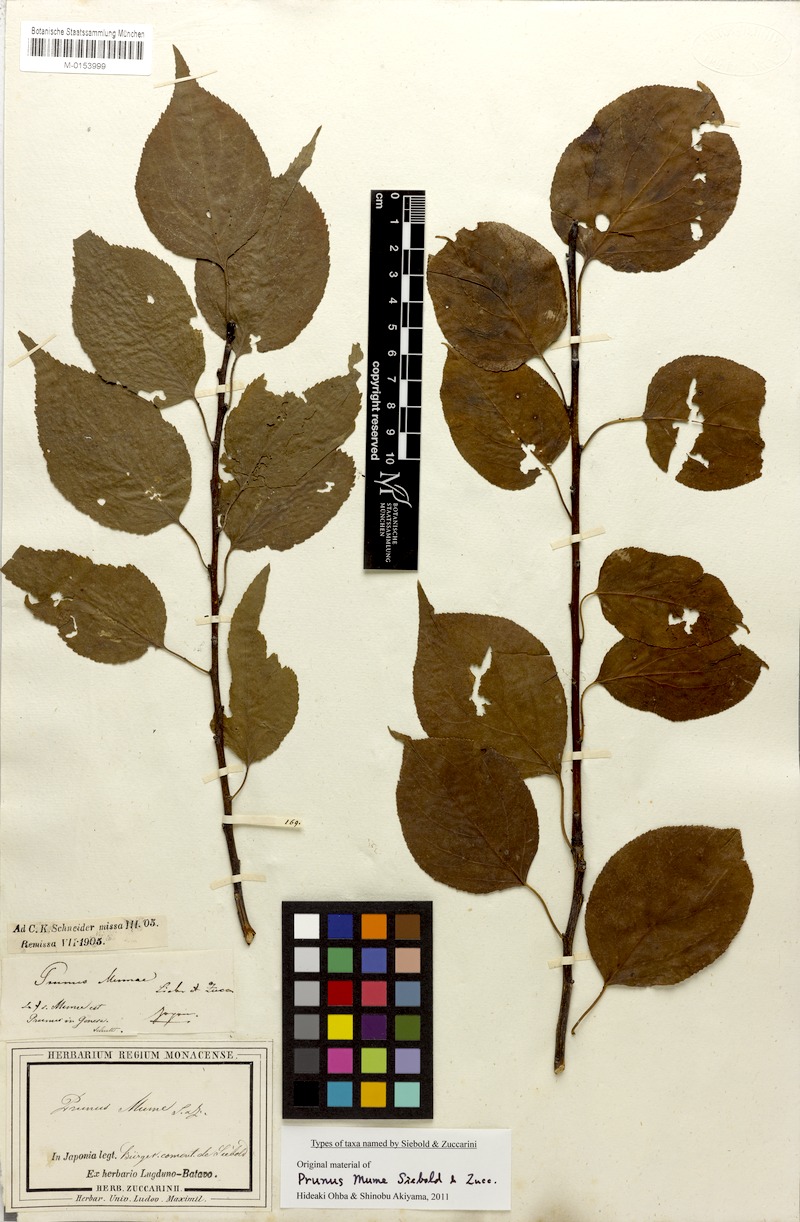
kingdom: Plantae
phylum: Tracheophyta
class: Magnoliopsida
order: Rosales
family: Rosaceae
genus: Prunus
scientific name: Prunus mume
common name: Japanese apricot
